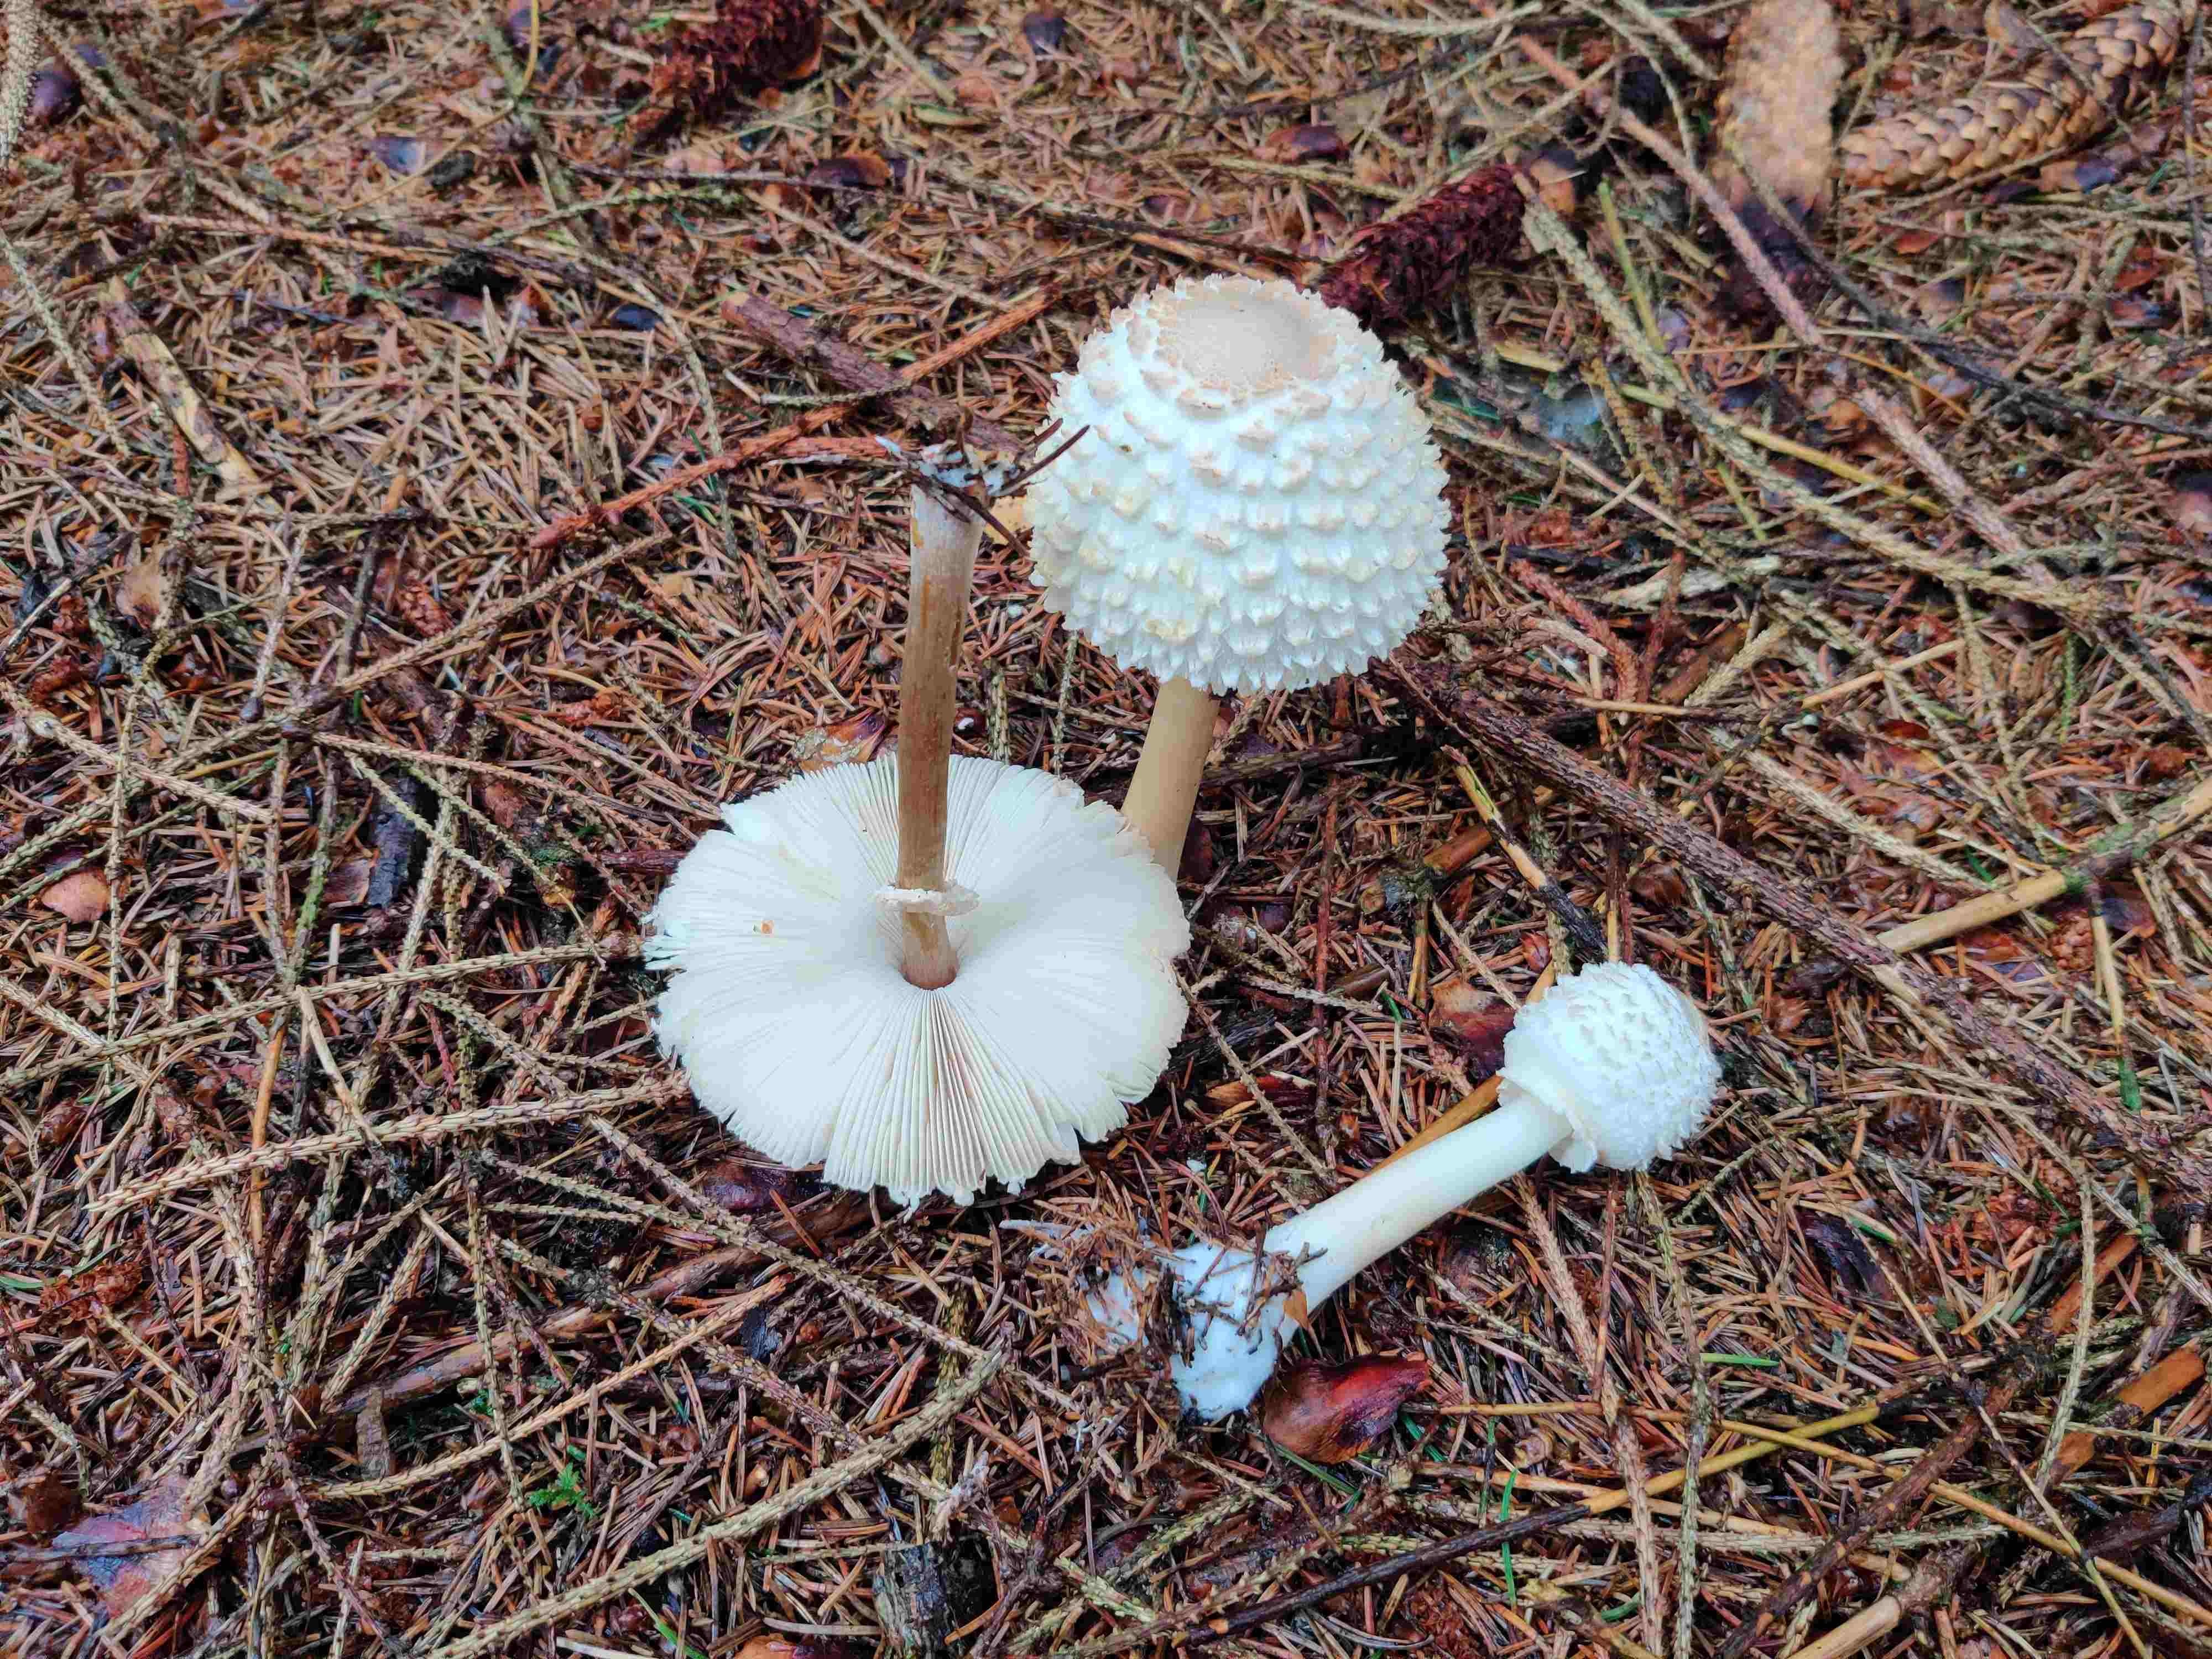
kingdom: Fungi
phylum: Basidiomycota
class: Agaricomycetes
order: Agaricales
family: Agaricaceae
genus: Leucoagaricus
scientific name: Leucoagaricus nympharum
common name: gran-silkehat
